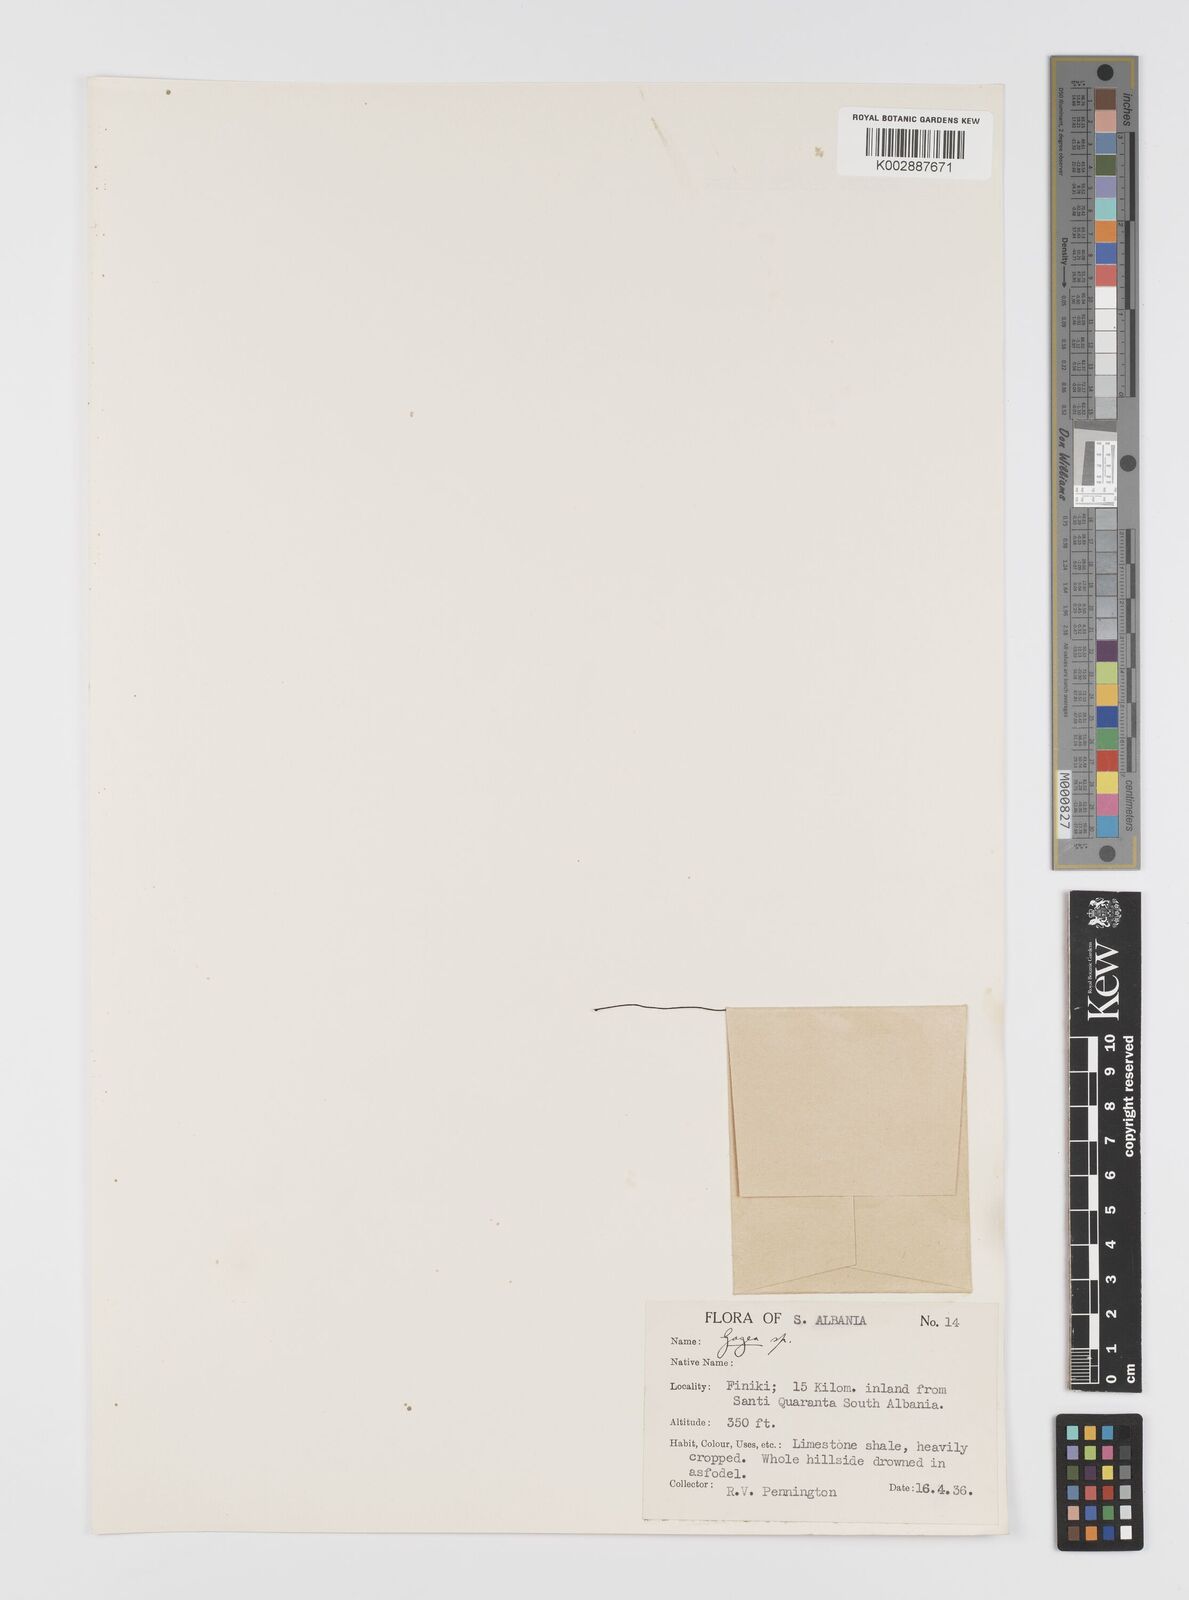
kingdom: Plantae
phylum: Tracheophyta
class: Liliopsida
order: Liliales
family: Liliaceae
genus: Gagea
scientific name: Gagea
